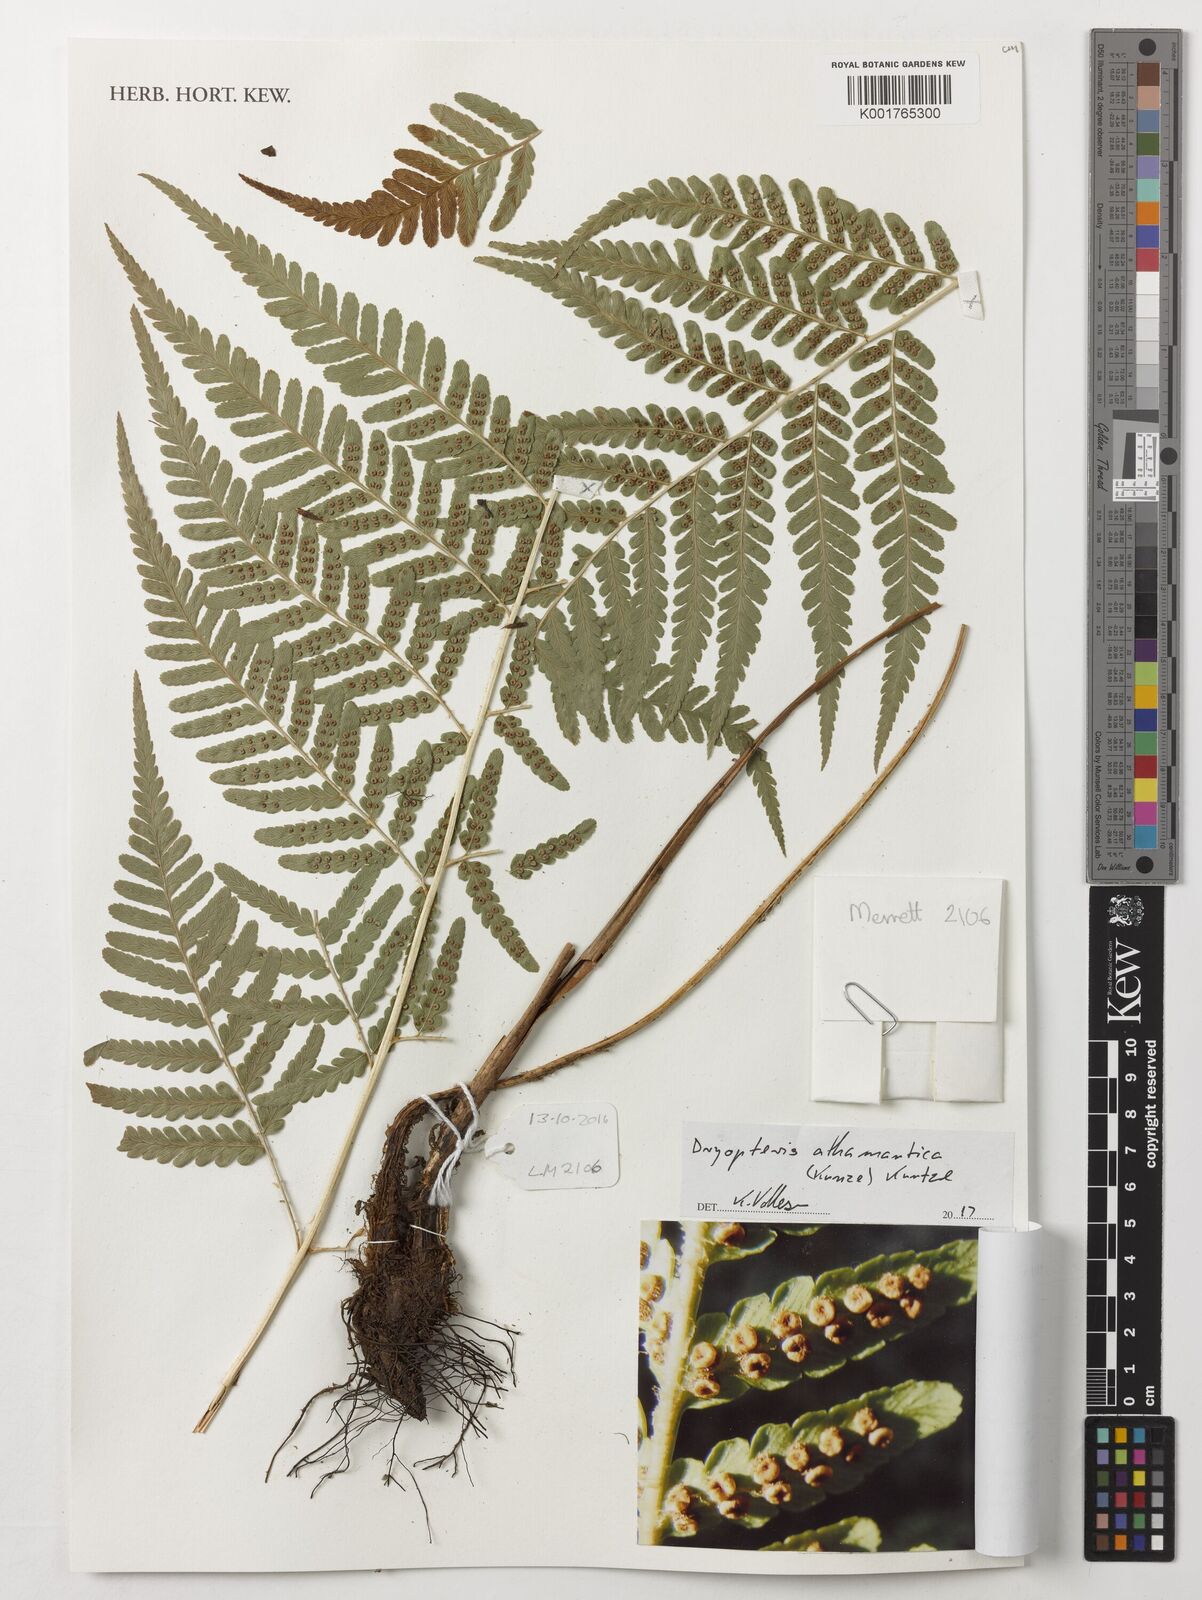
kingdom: Plantae
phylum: Tracheophyta
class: Polypodiopsida
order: Polypodiales
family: Dryopteridaceae
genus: Dryopteris
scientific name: Dryopteris athamantica
